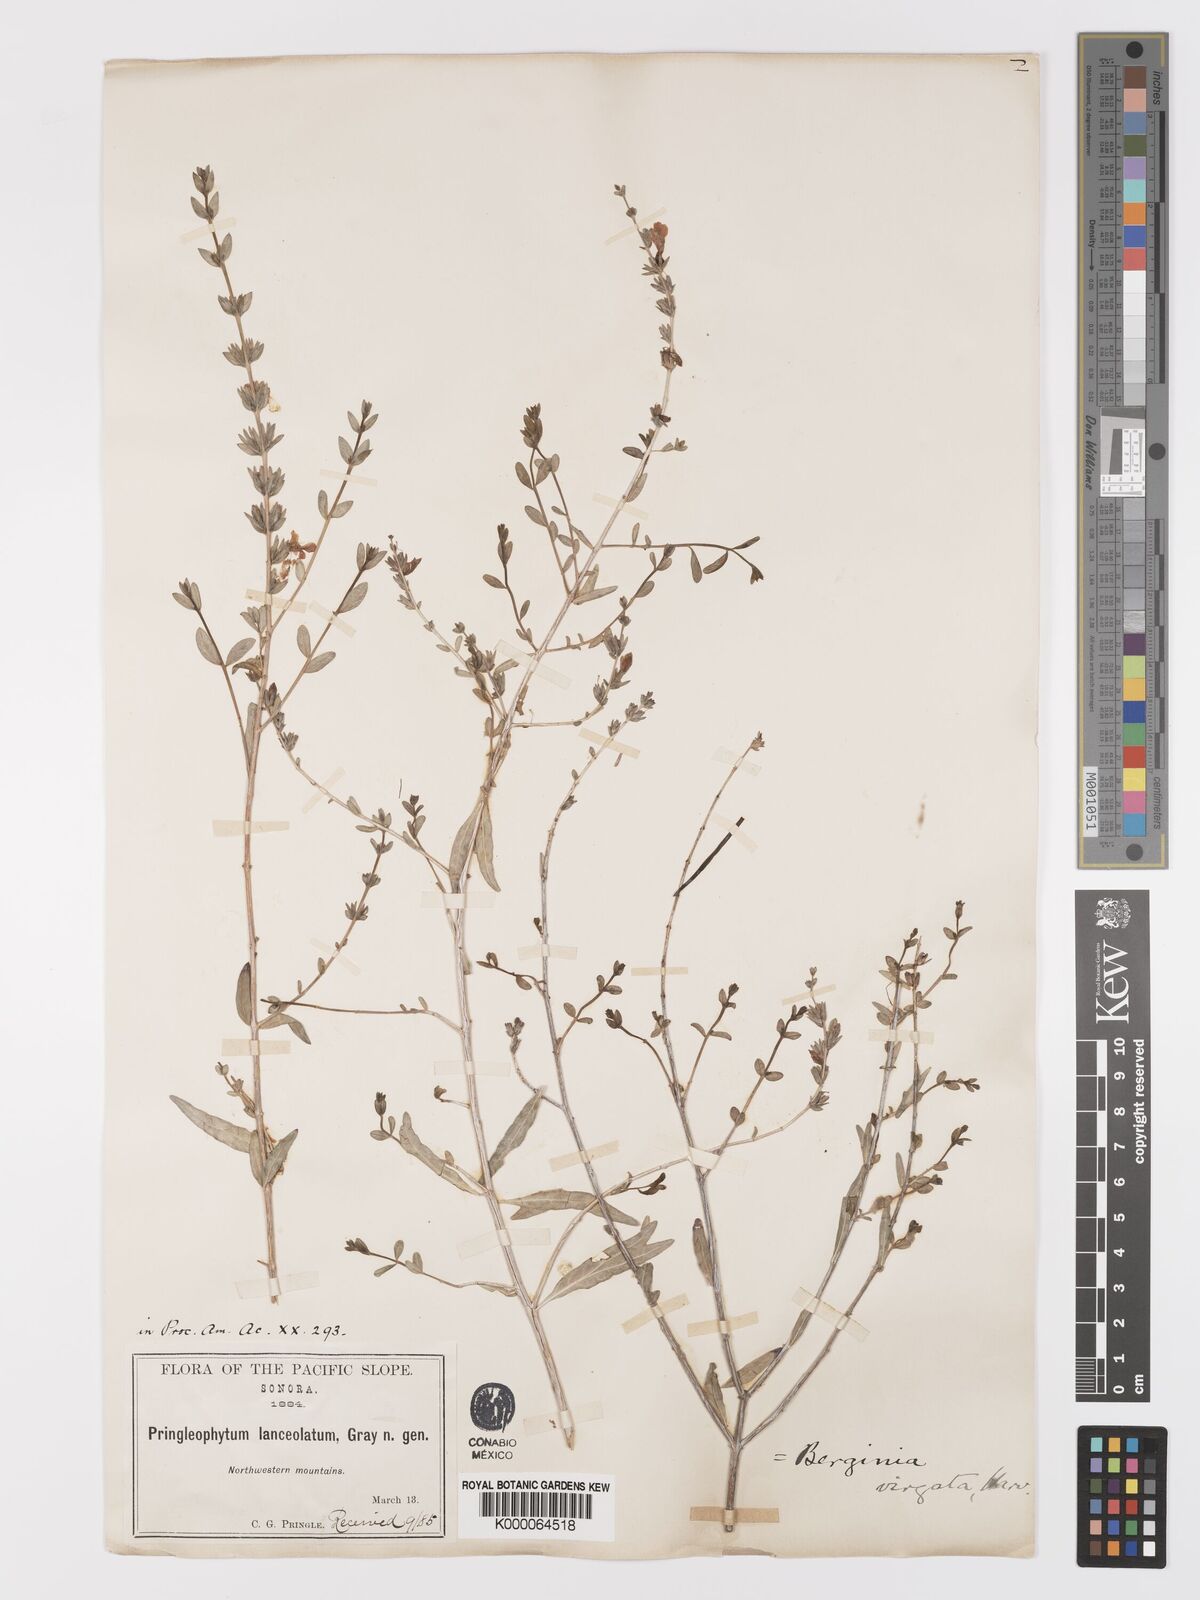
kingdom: Plantae
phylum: Tracheophyta
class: Magnoliopsida
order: Lamiales
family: Acanthaceae
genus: Holographis
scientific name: Holographis virgata
